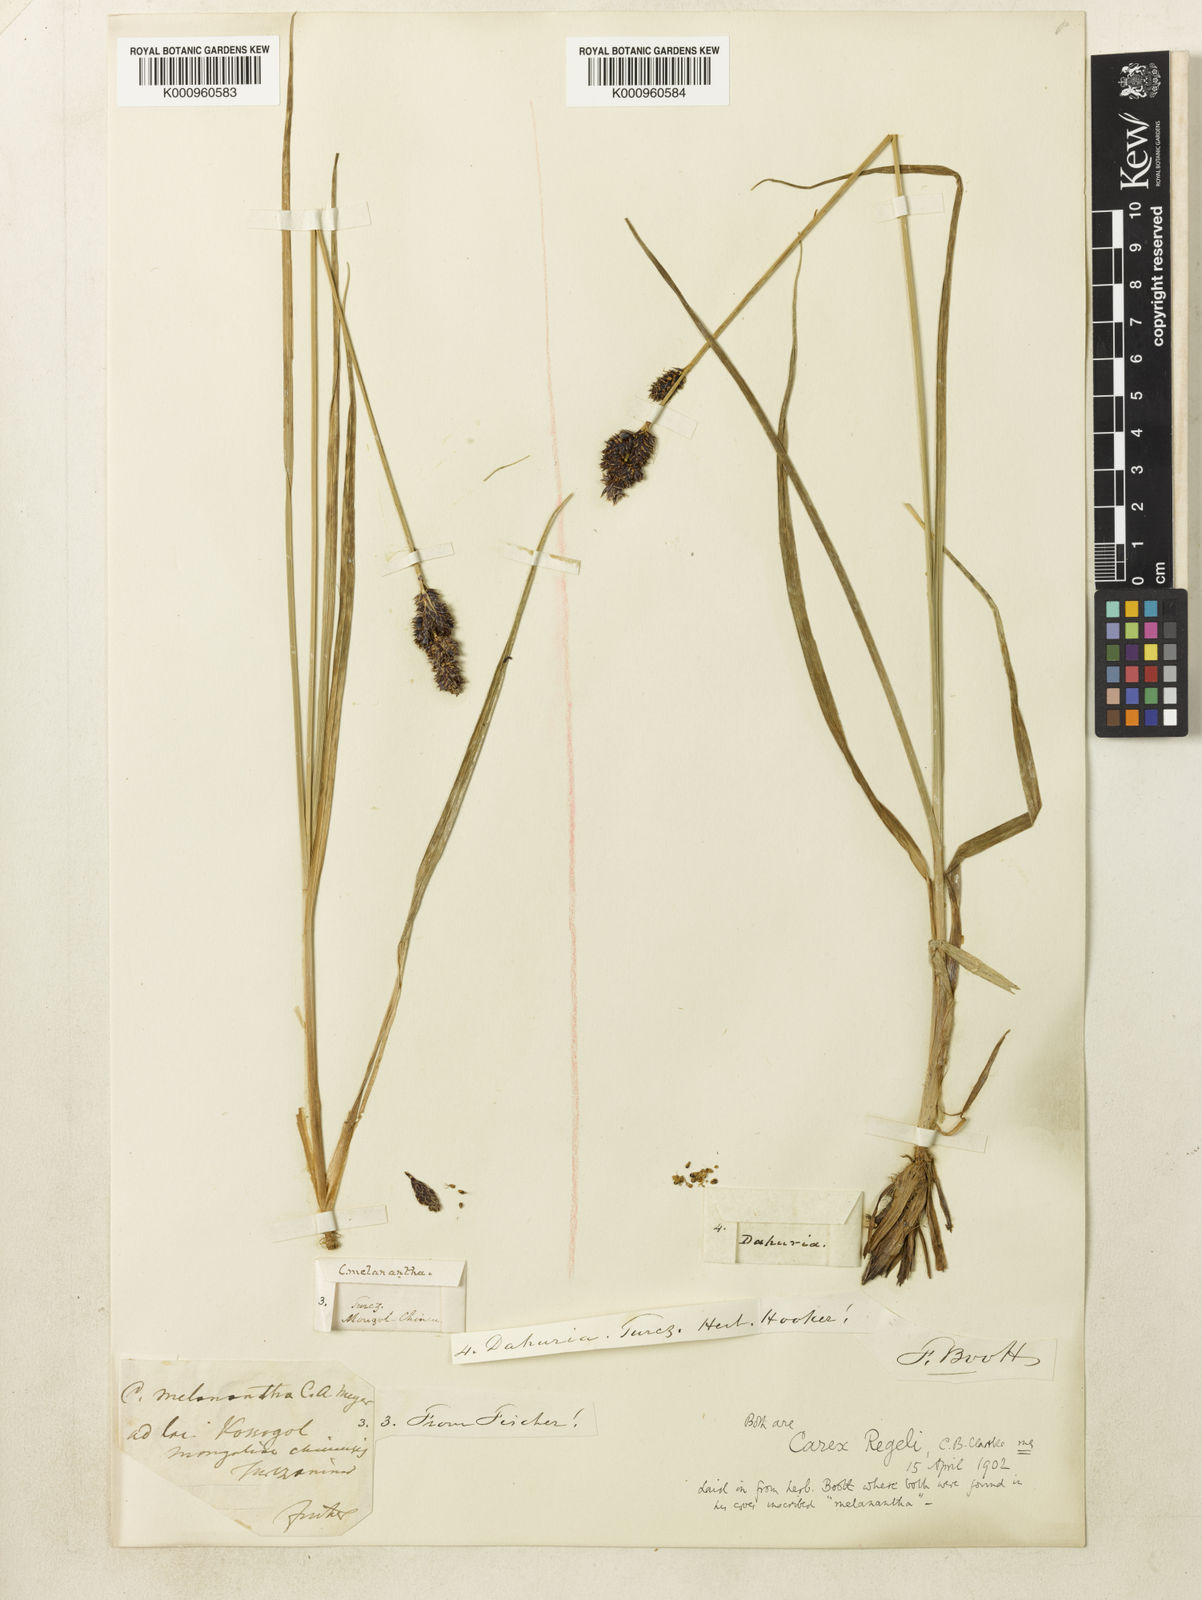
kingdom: Plantae
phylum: Tracheophyta
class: Liliopsida
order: Poales
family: Cyperaceae
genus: Carex
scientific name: Carex melanantha
